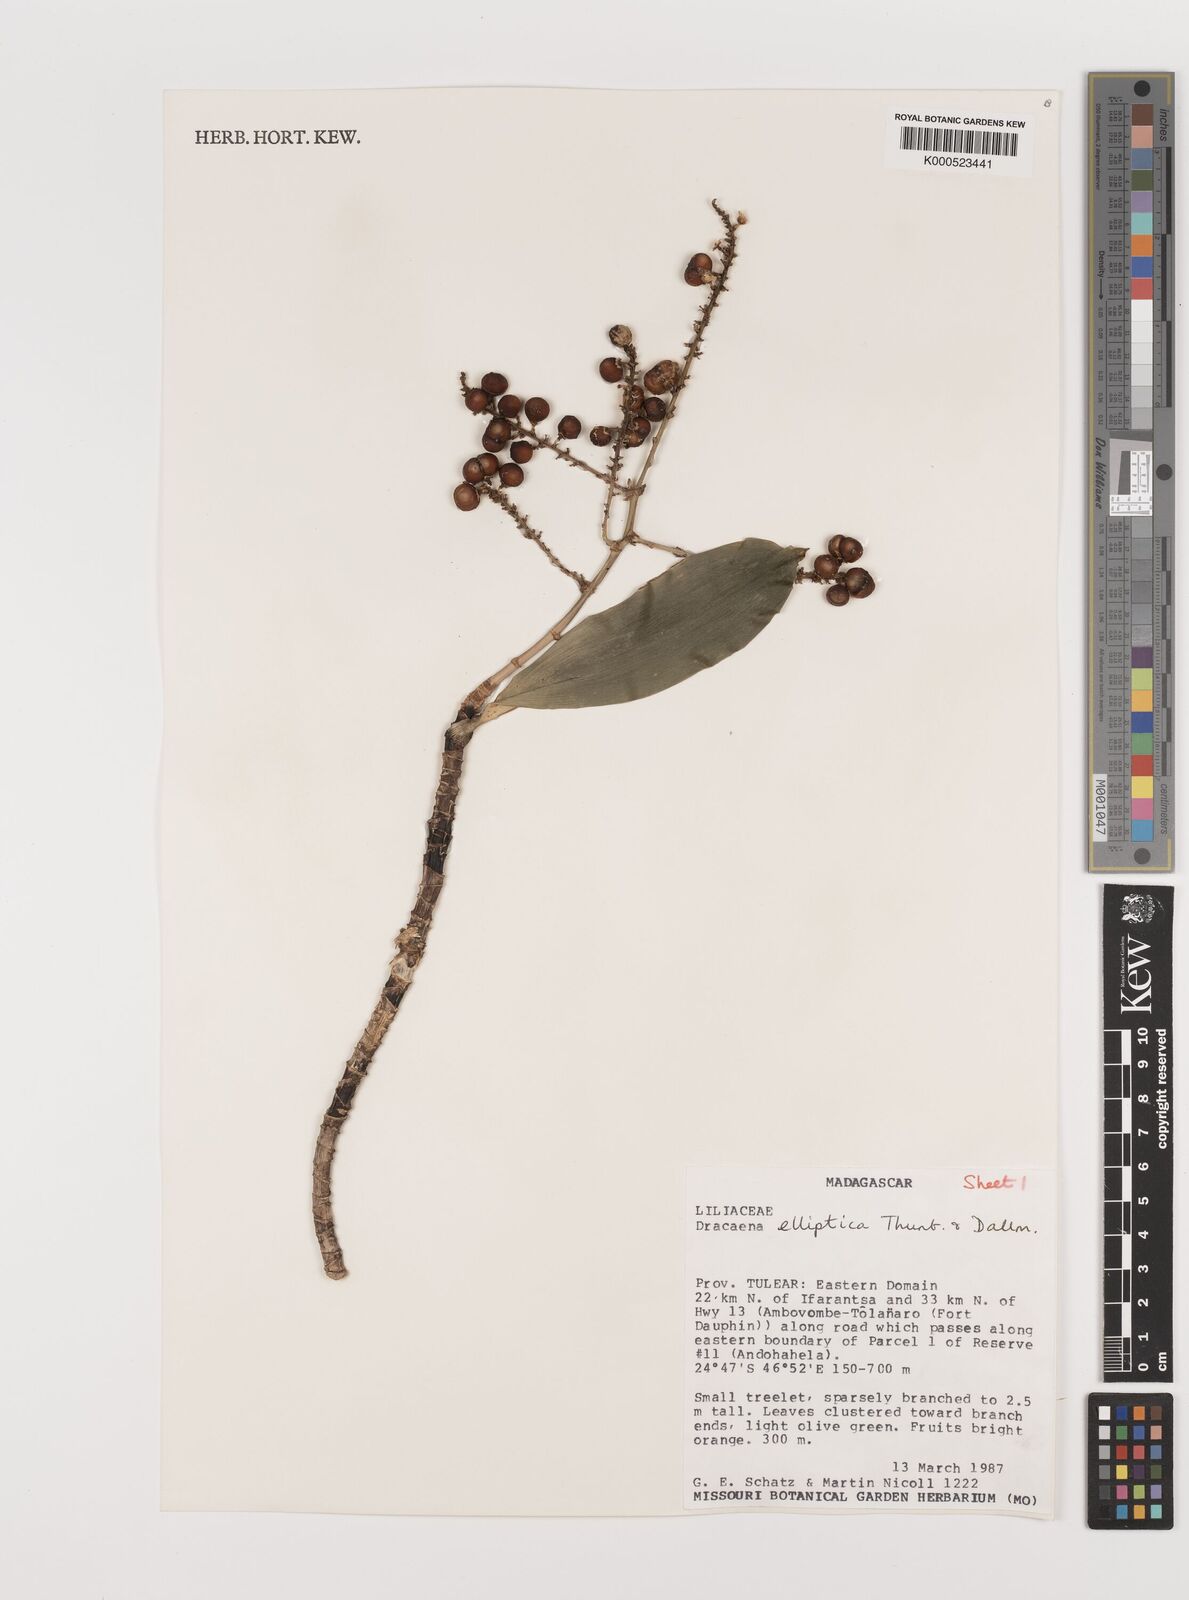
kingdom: Plantae
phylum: Tracheophyta
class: Liliopsida
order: Asparagales
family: Asparagaceae
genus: Dracaena
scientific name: Dracaena elliptica
